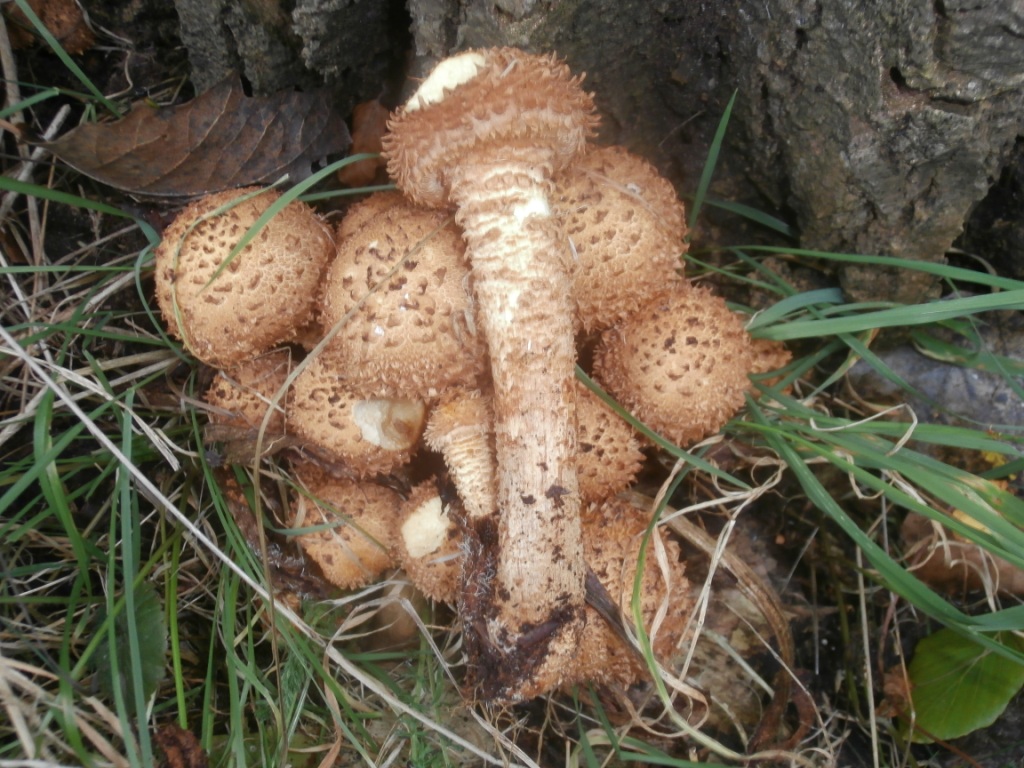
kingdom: Fungi
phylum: Basidiomycota
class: Agaricomycetes
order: Agaricales
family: Strophariaceae
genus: Pholiota
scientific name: Pholiota squarrosa
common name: krumskællet skælhat
